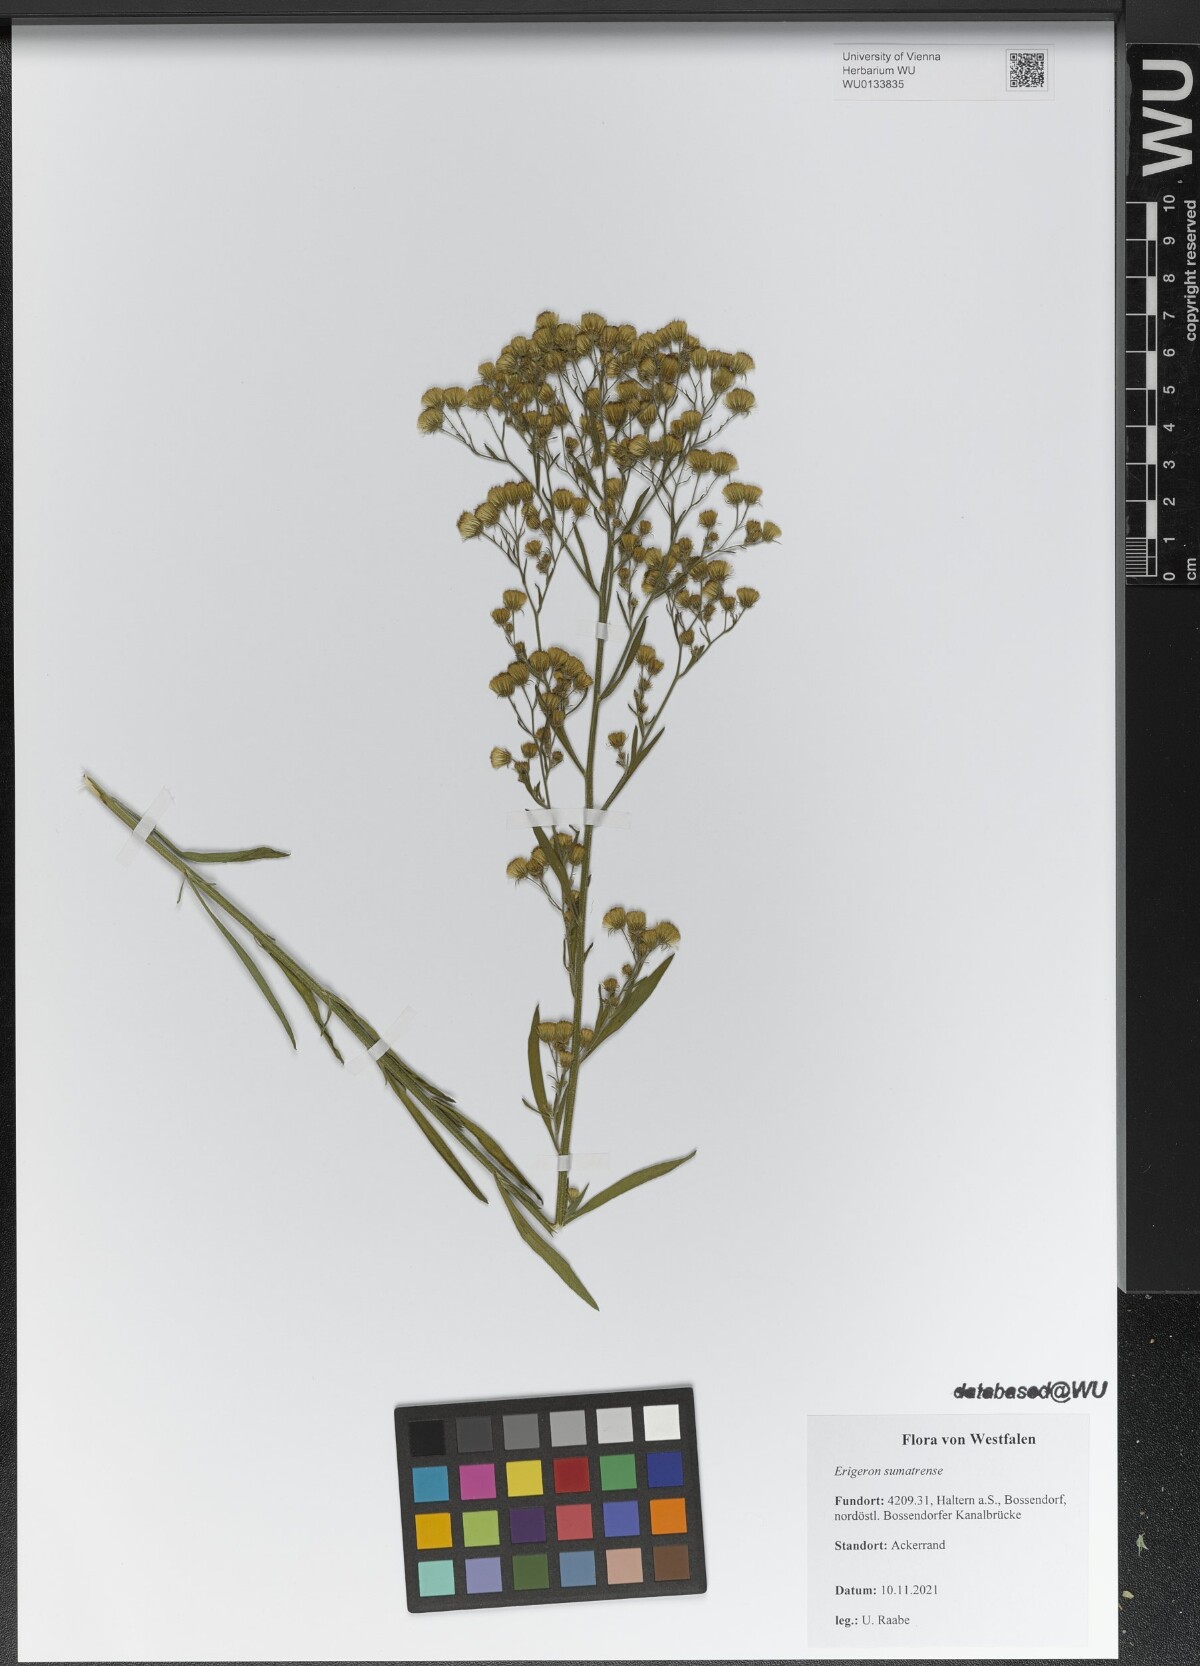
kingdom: Plantae
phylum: Tracheophyta
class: Magnoliopsida
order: Asterales
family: Asteraceae
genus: Erigeron
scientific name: Erigeron sumatrensis
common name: Daisy
